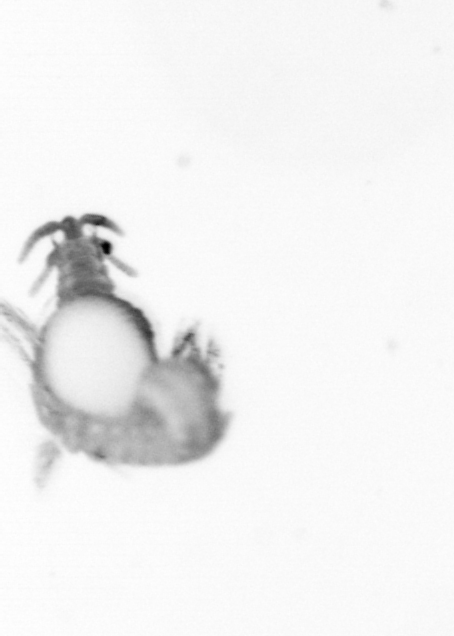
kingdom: Animalia
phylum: Annelida
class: Polychaeta
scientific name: Polychaeta
